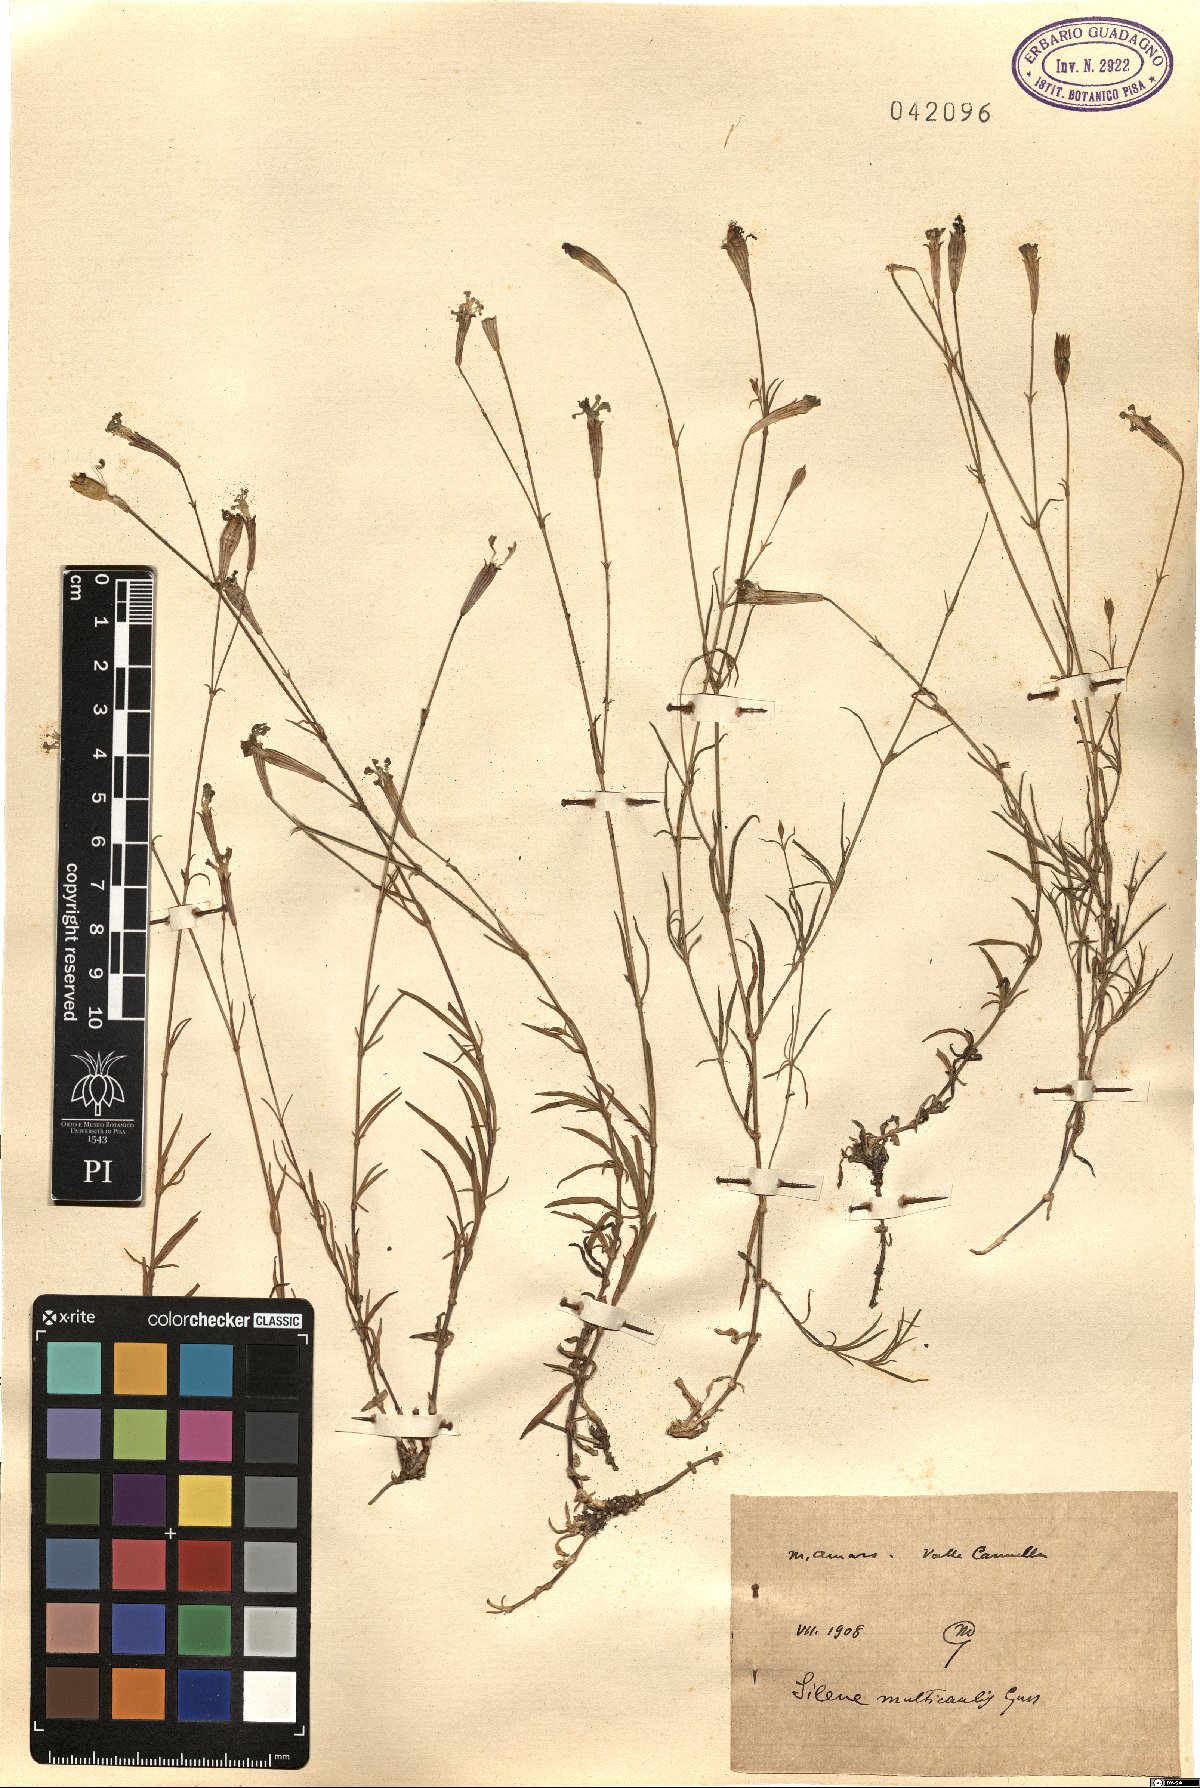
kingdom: Plantae
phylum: Tracheophyta
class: Magnoliopsida
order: Caryophyllales
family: Caryophyllaceae
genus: Silene
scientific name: Silene multicaulis
